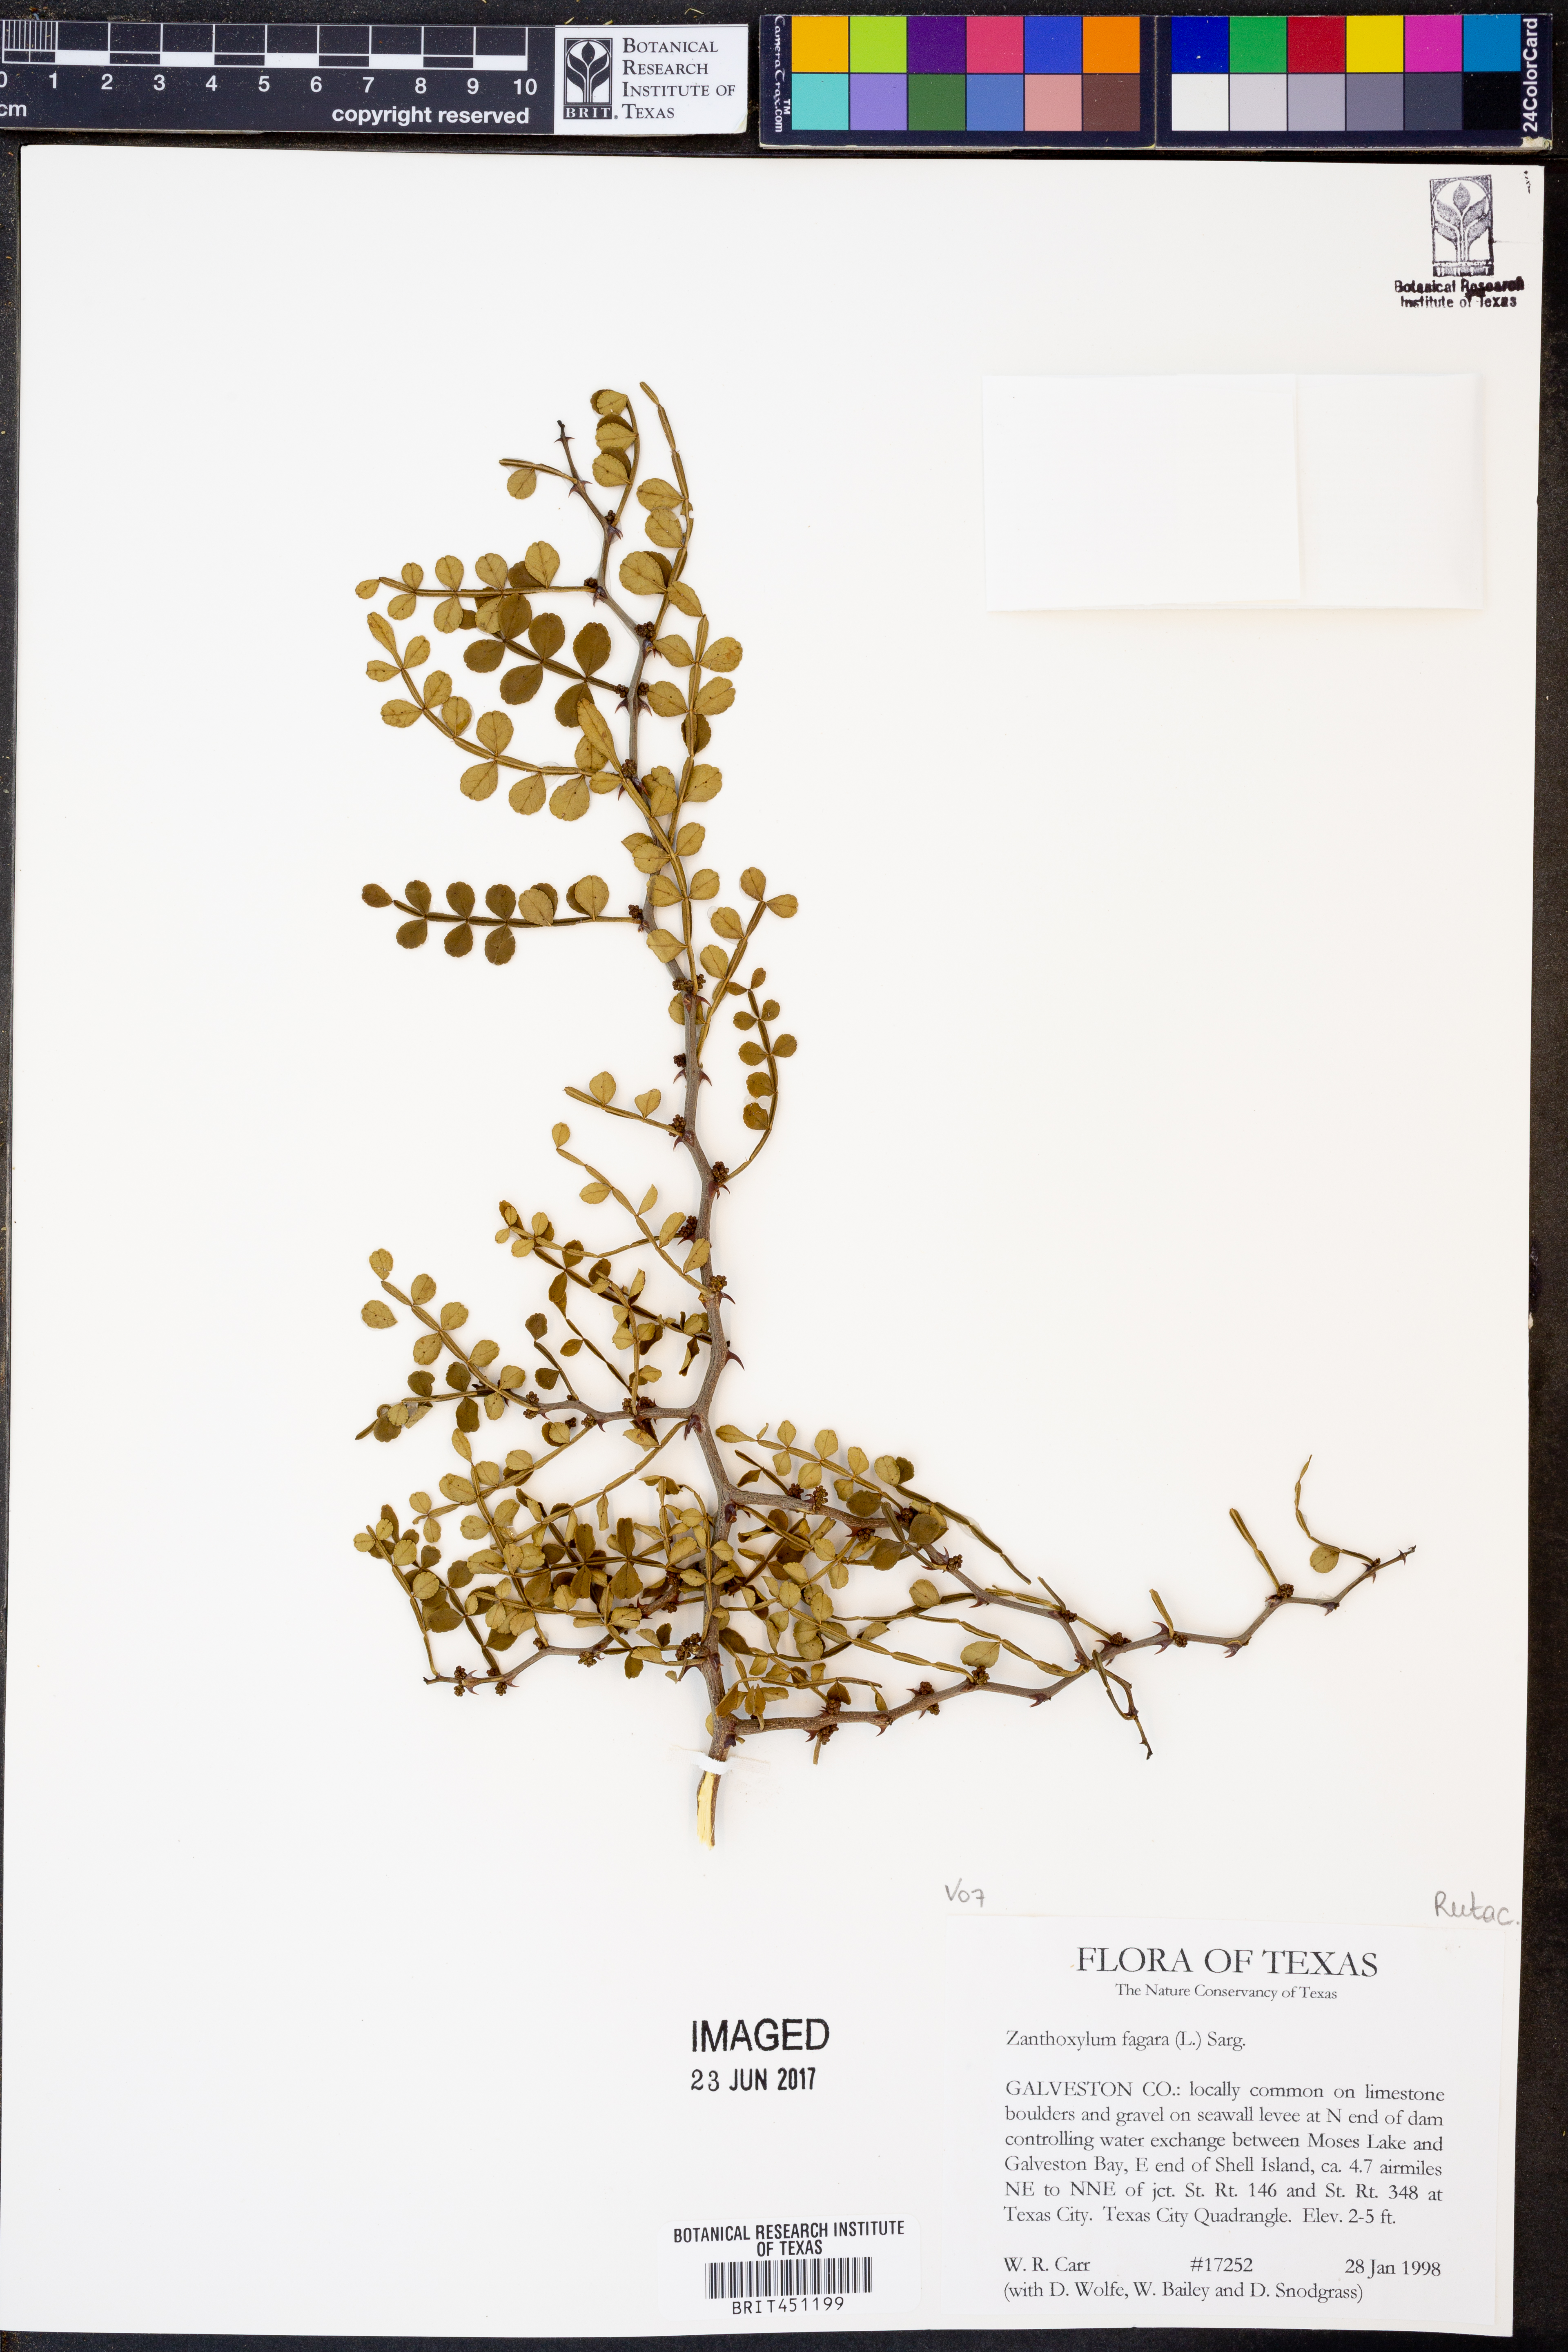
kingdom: Plantae
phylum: Tracheophyta
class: Magnoliopsida
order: Sapindales
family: Rutaceae
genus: Zanthoxylum
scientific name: Zanthoxylum fagara
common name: Lime prickly-ash
